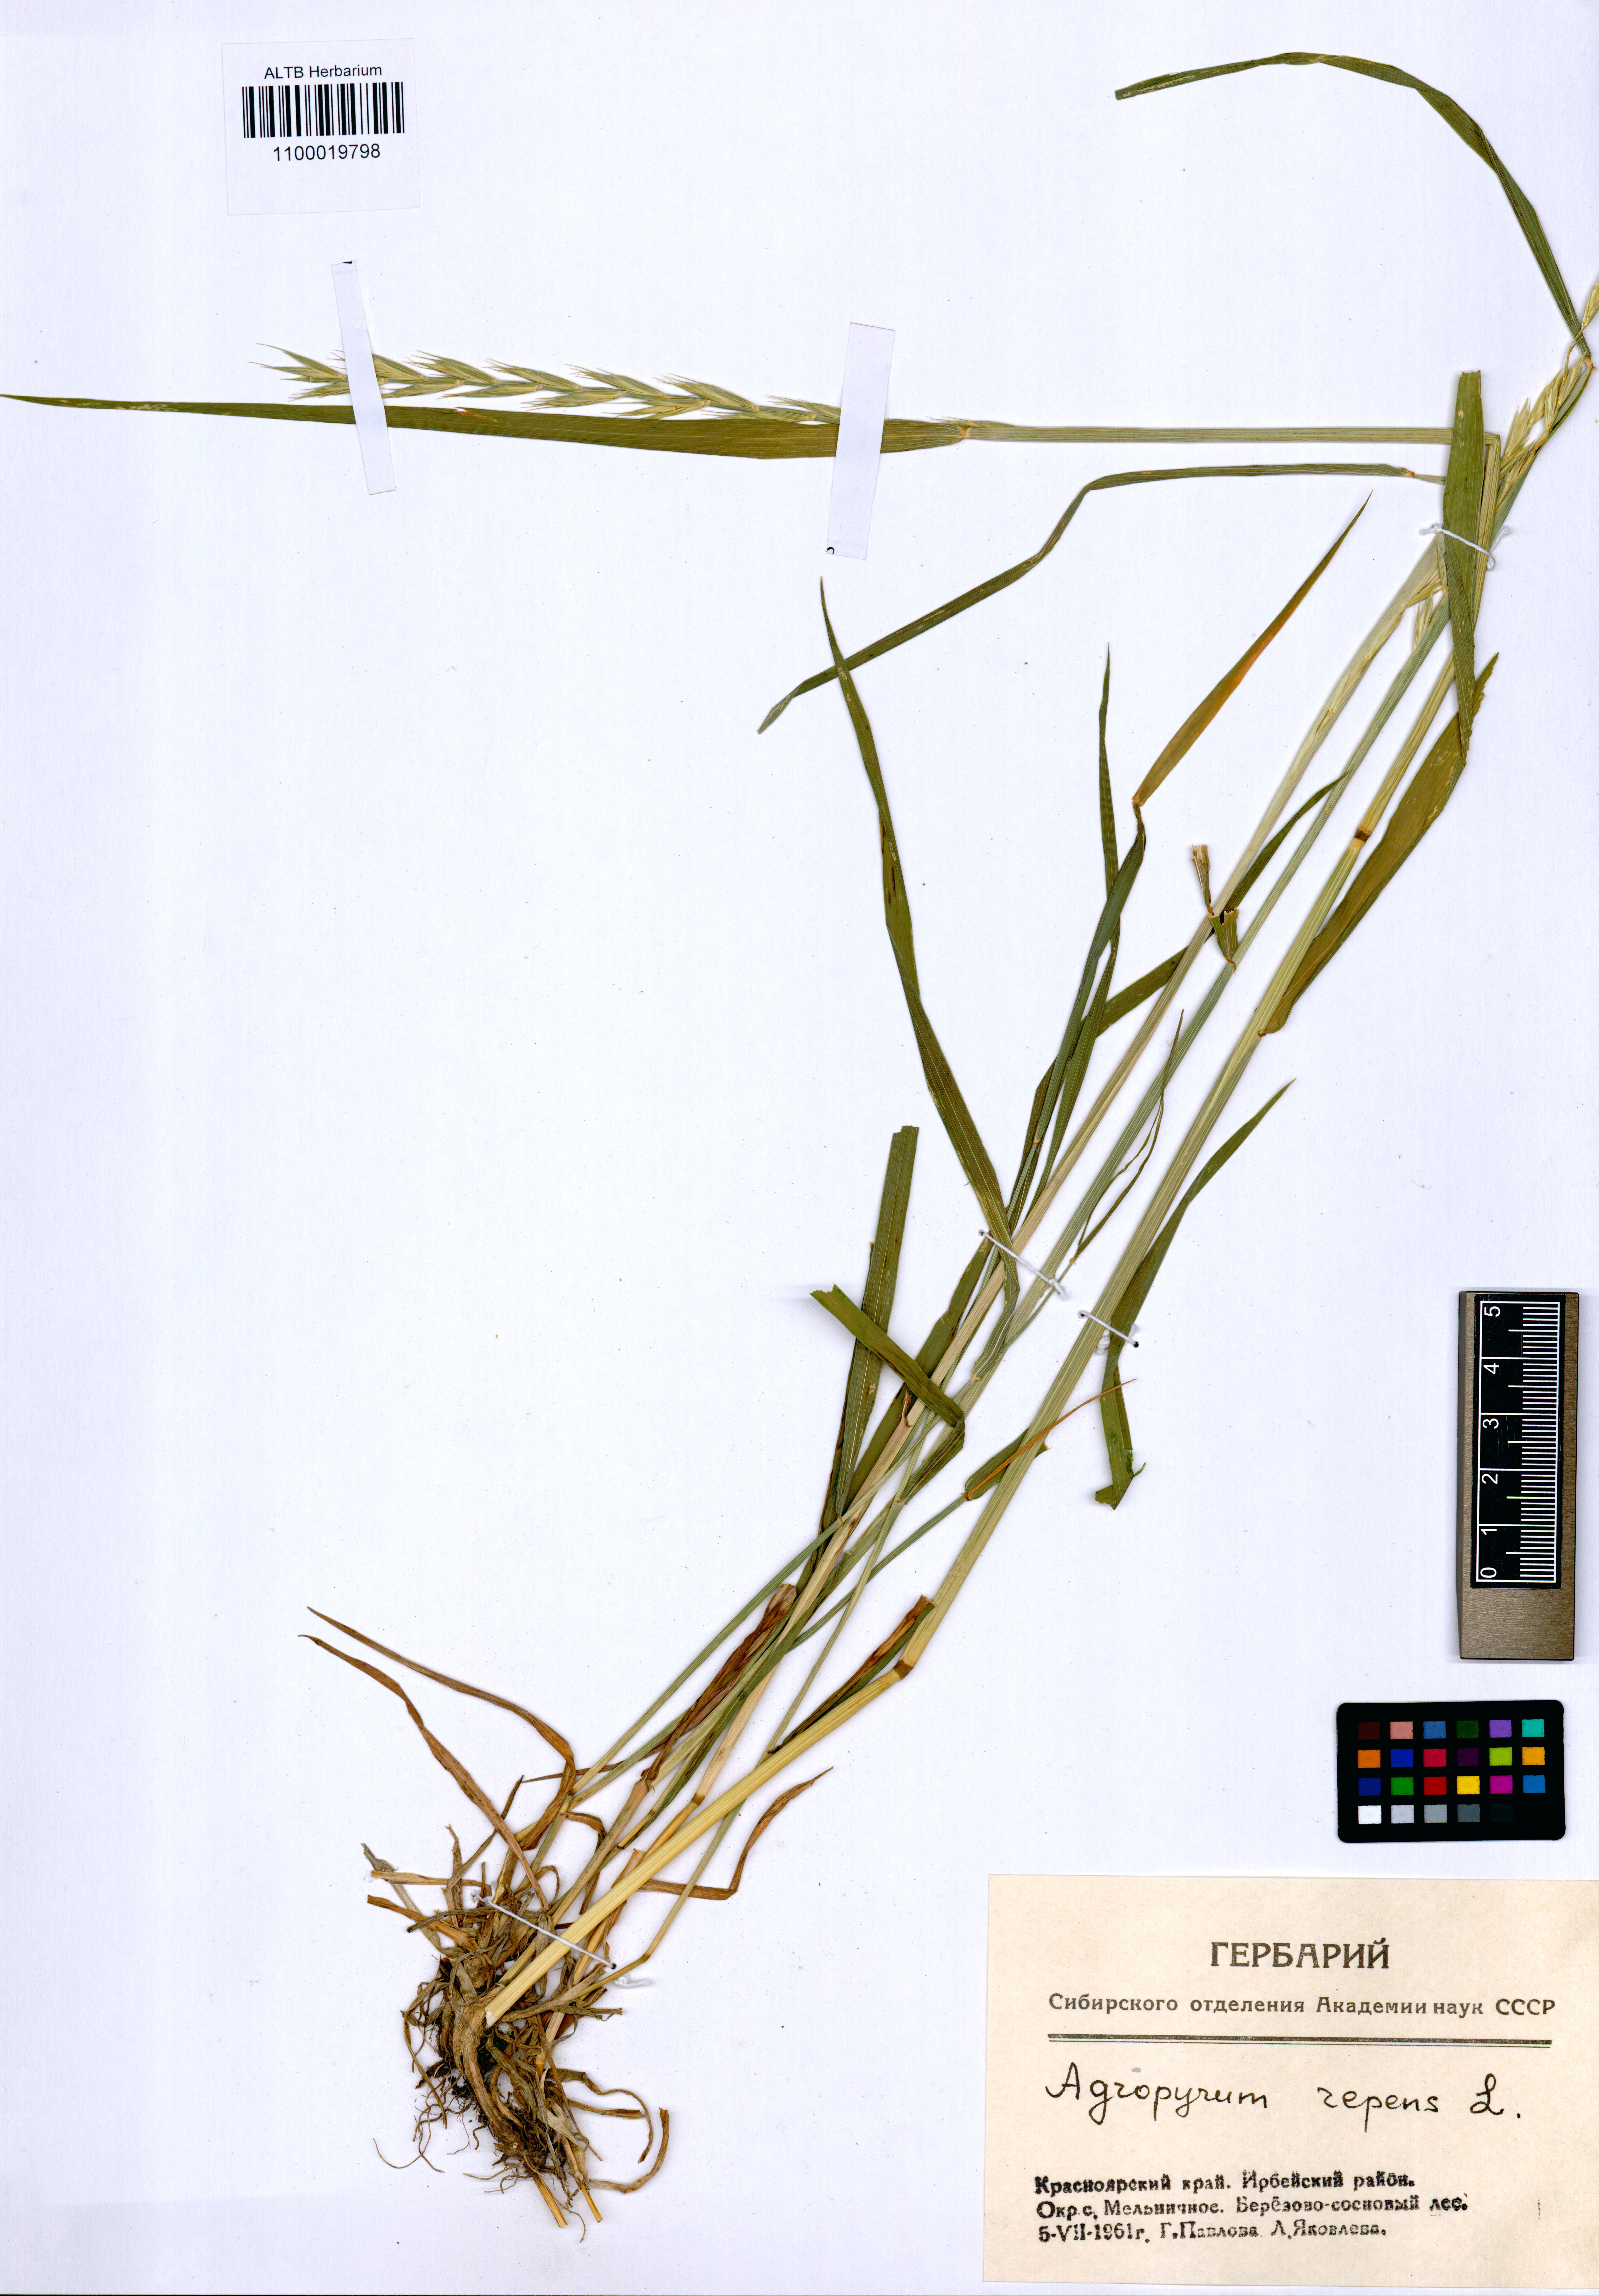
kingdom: Plantae
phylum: Tracheophyta
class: Liliopsida
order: Poales
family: Poaceae
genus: Elymus
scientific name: Elymus repens
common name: Quackgrass
